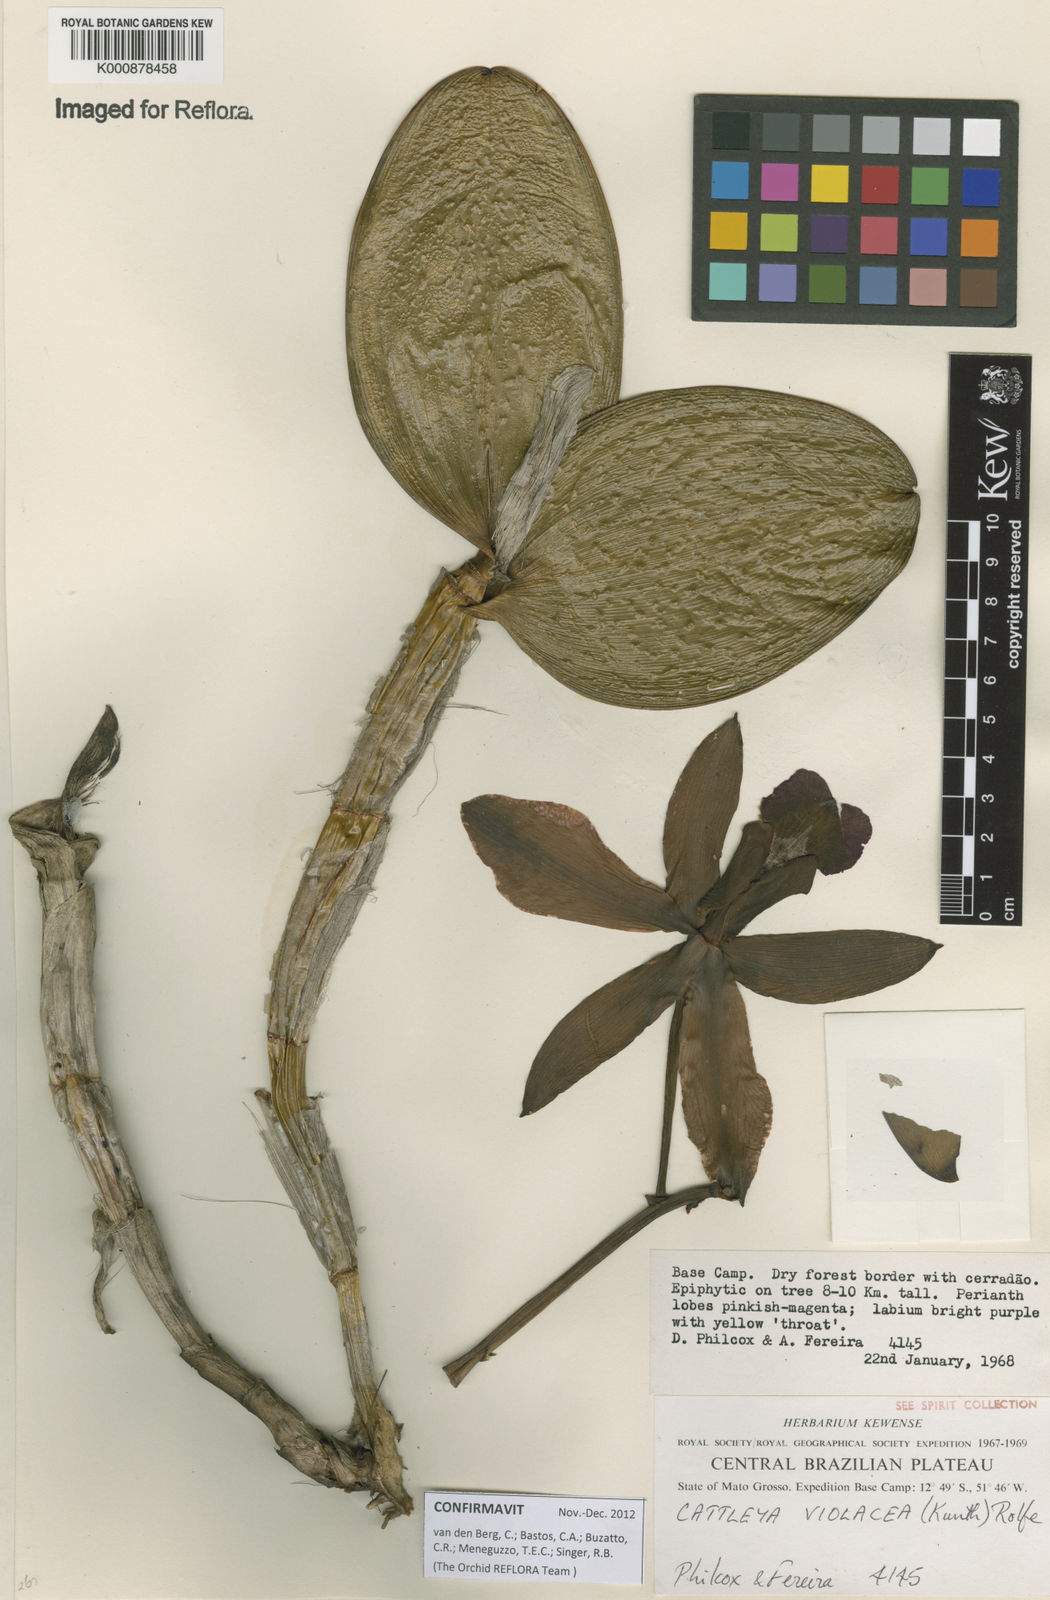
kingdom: Plantae
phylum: Tracheophyta
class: Liliopsida
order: Asparagales
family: Orchidaceae
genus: Cattleya
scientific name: Cattleya
